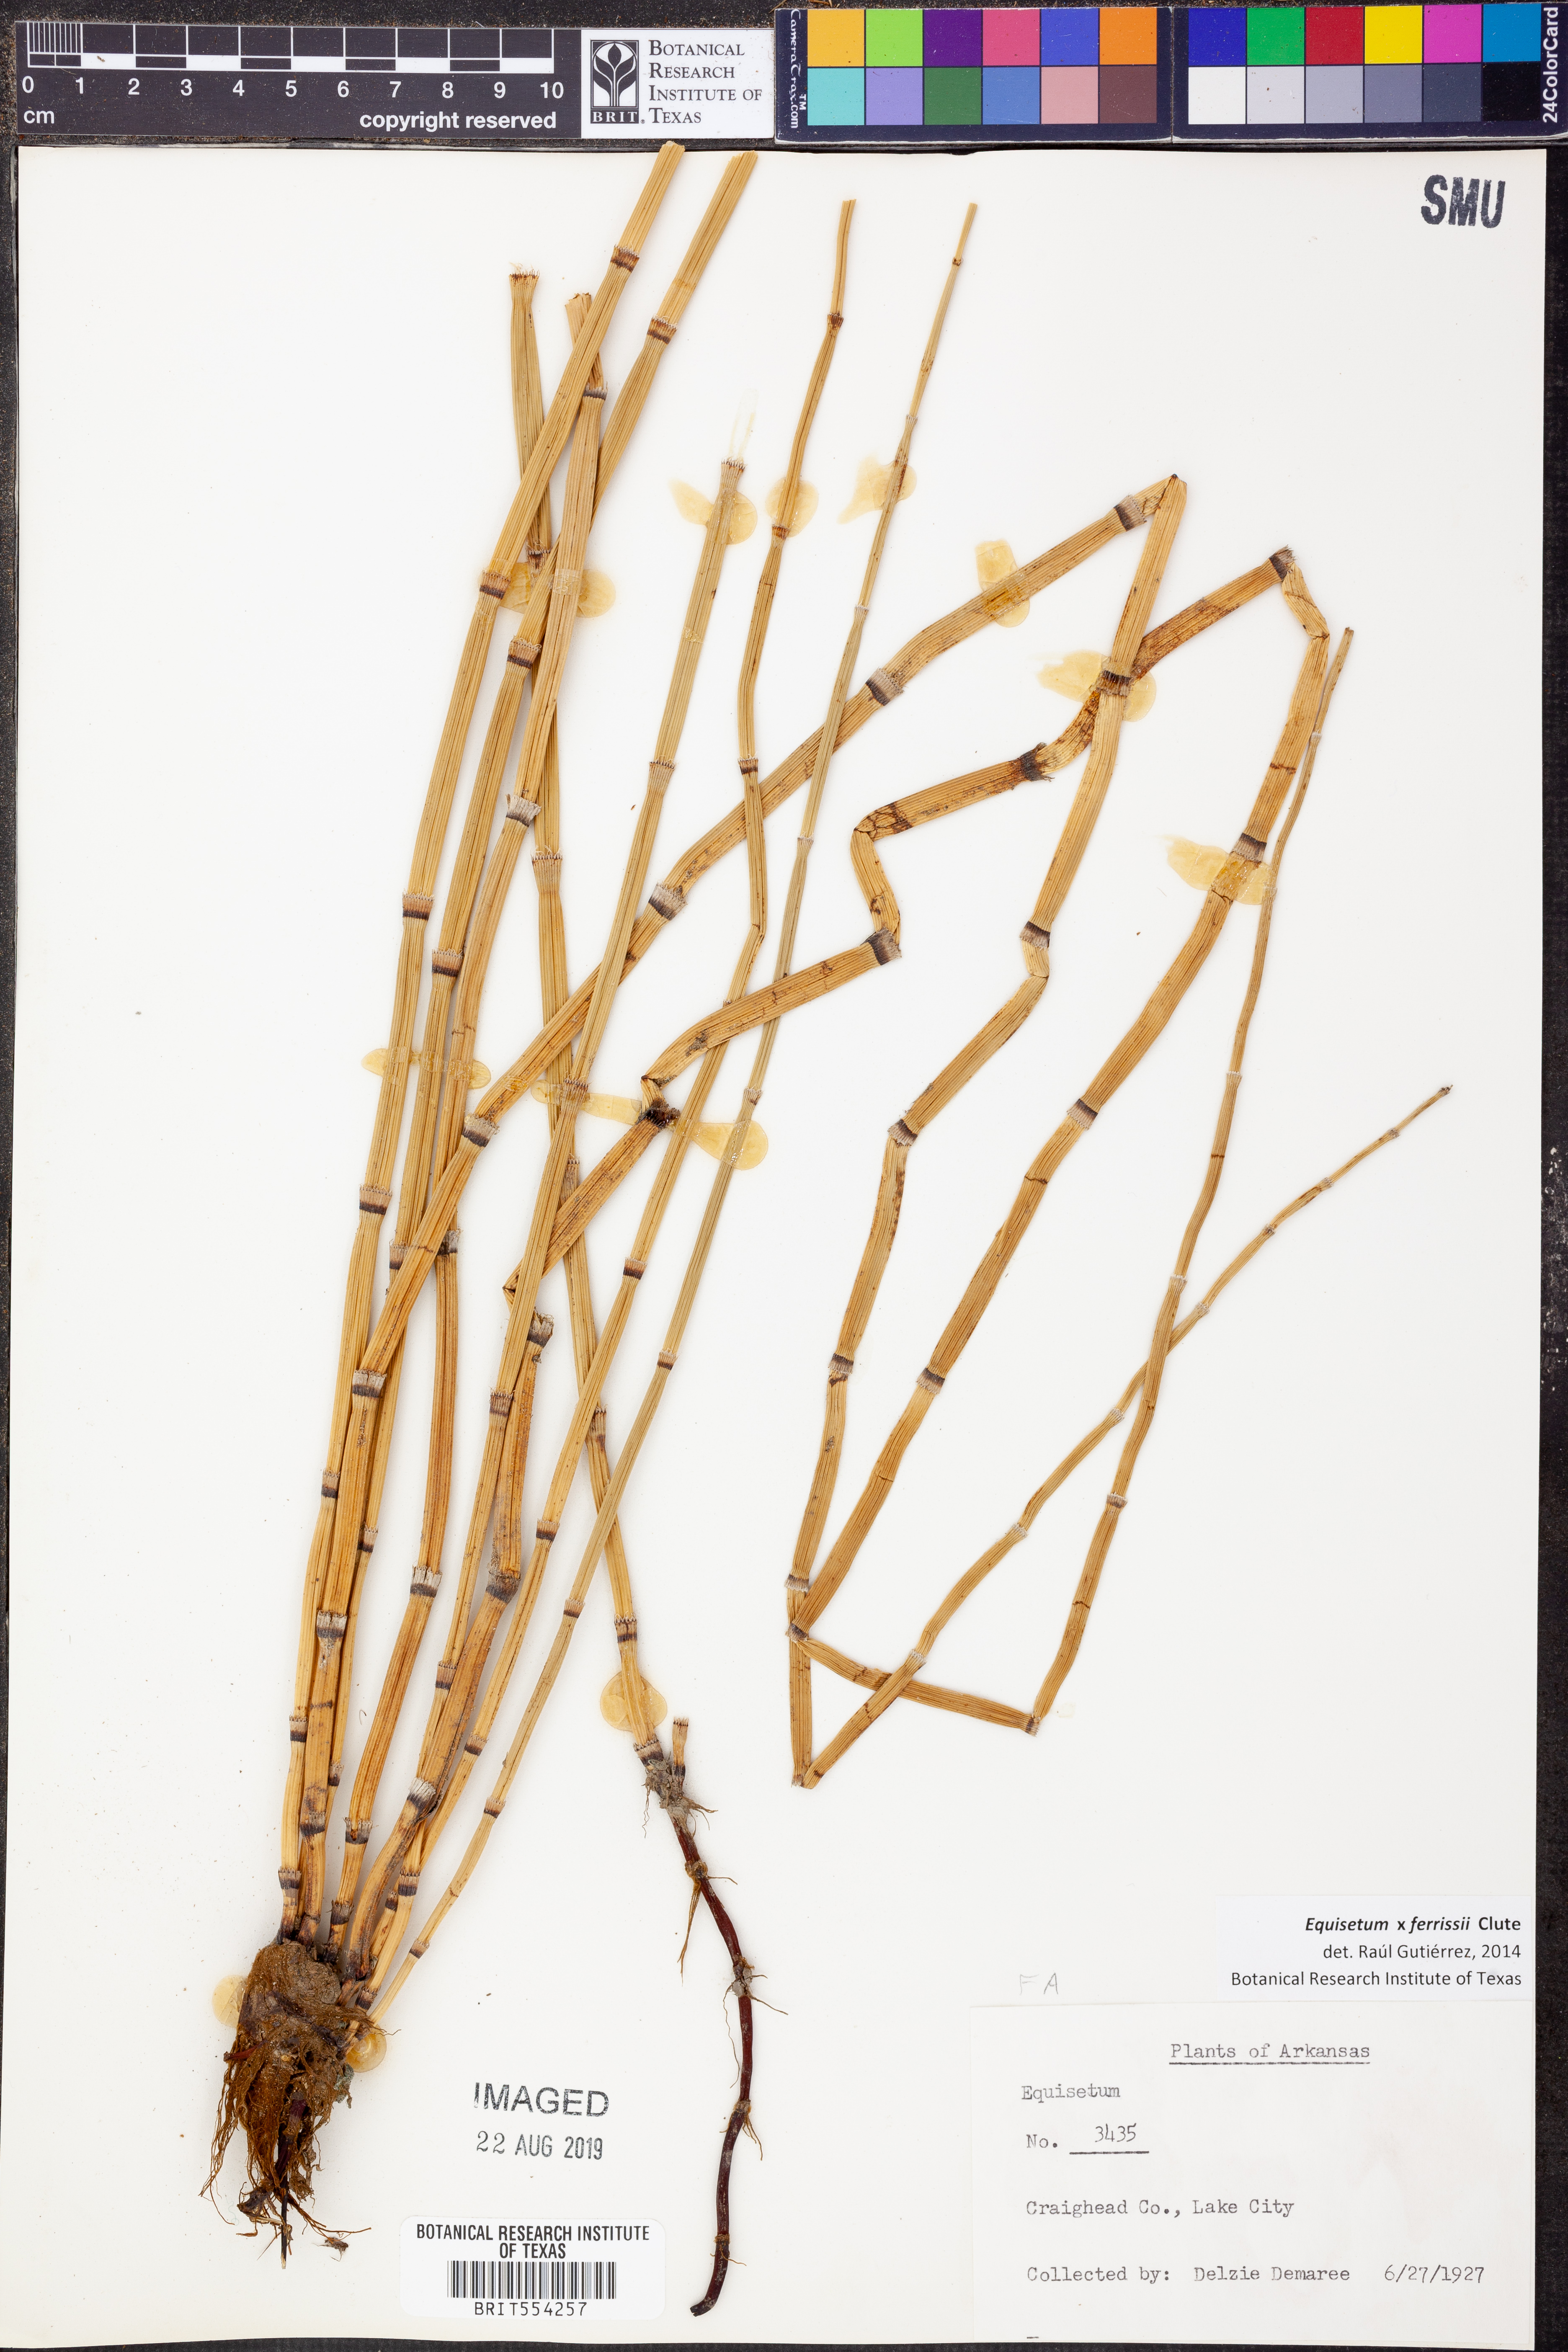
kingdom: Plantae
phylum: Tracheophyta
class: Polypodiopsida
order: Equisetales
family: Equisetaceae
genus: Equisetum
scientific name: Equisetum ferrissii
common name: Ferriss' horsetail
